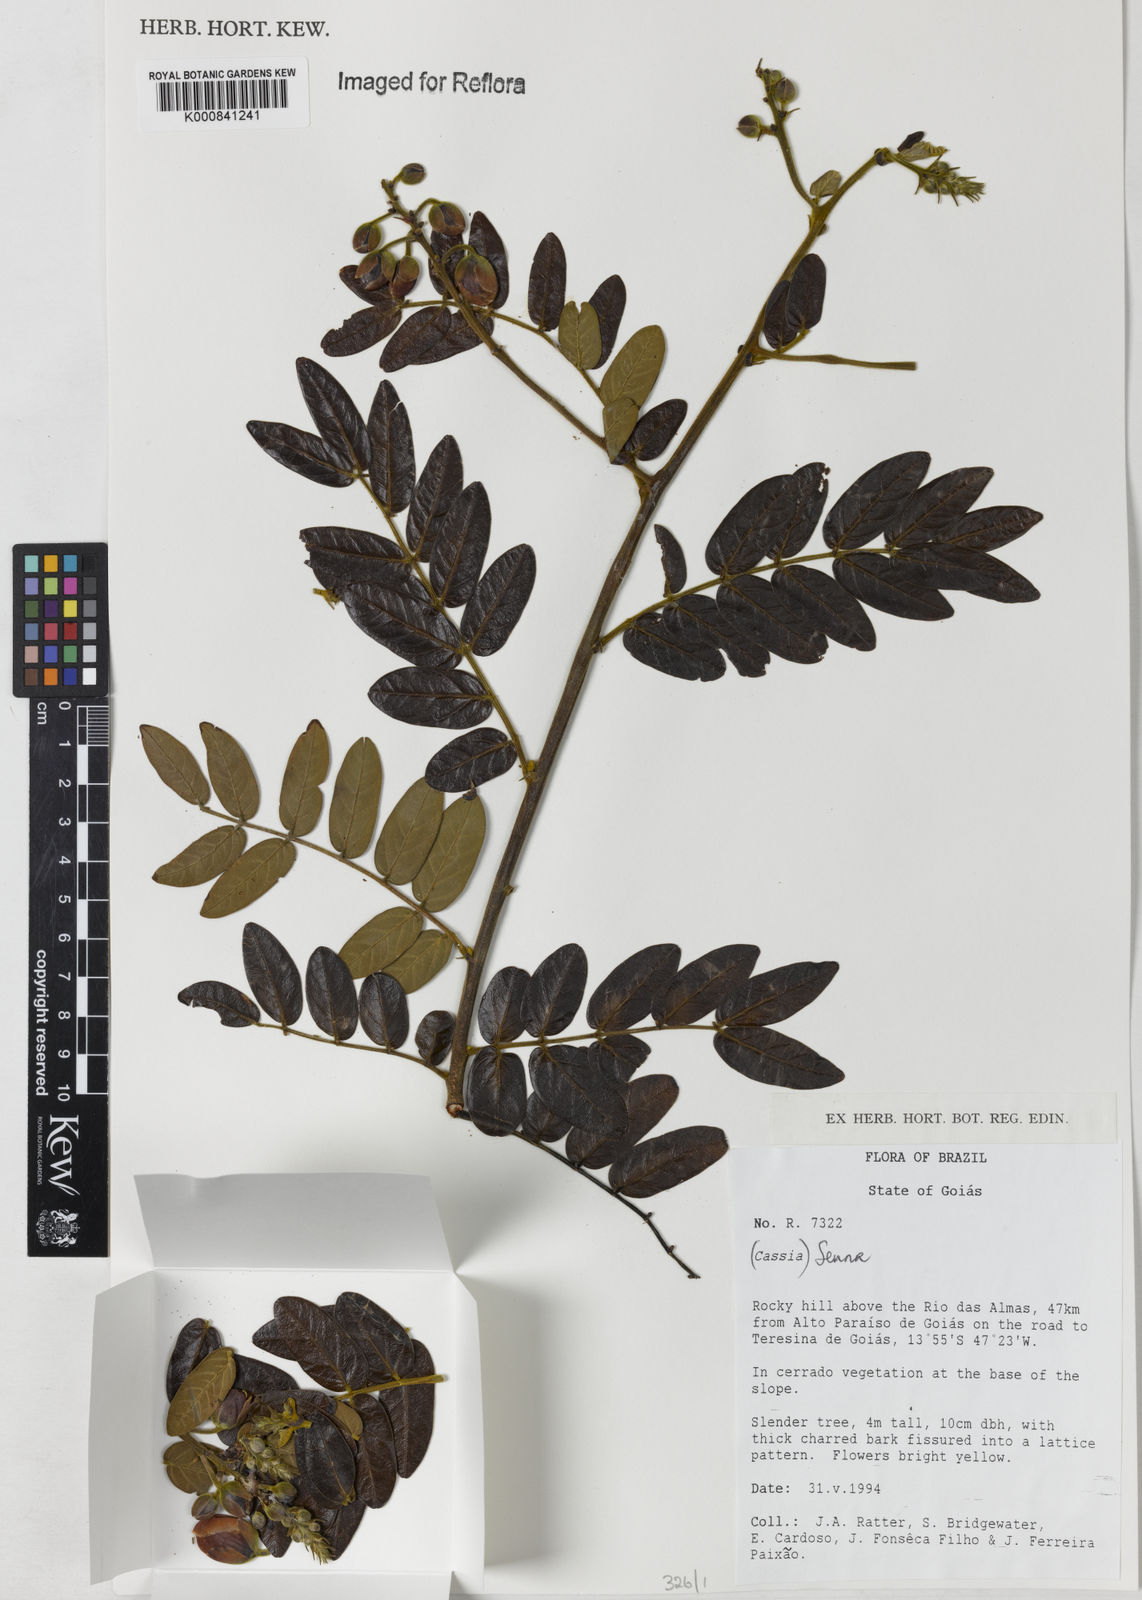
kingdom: Plantae
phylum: Tracheophyta
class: Magnoliopsida
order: Fabales
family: Fabaceae
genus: Senna
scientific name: Senna
